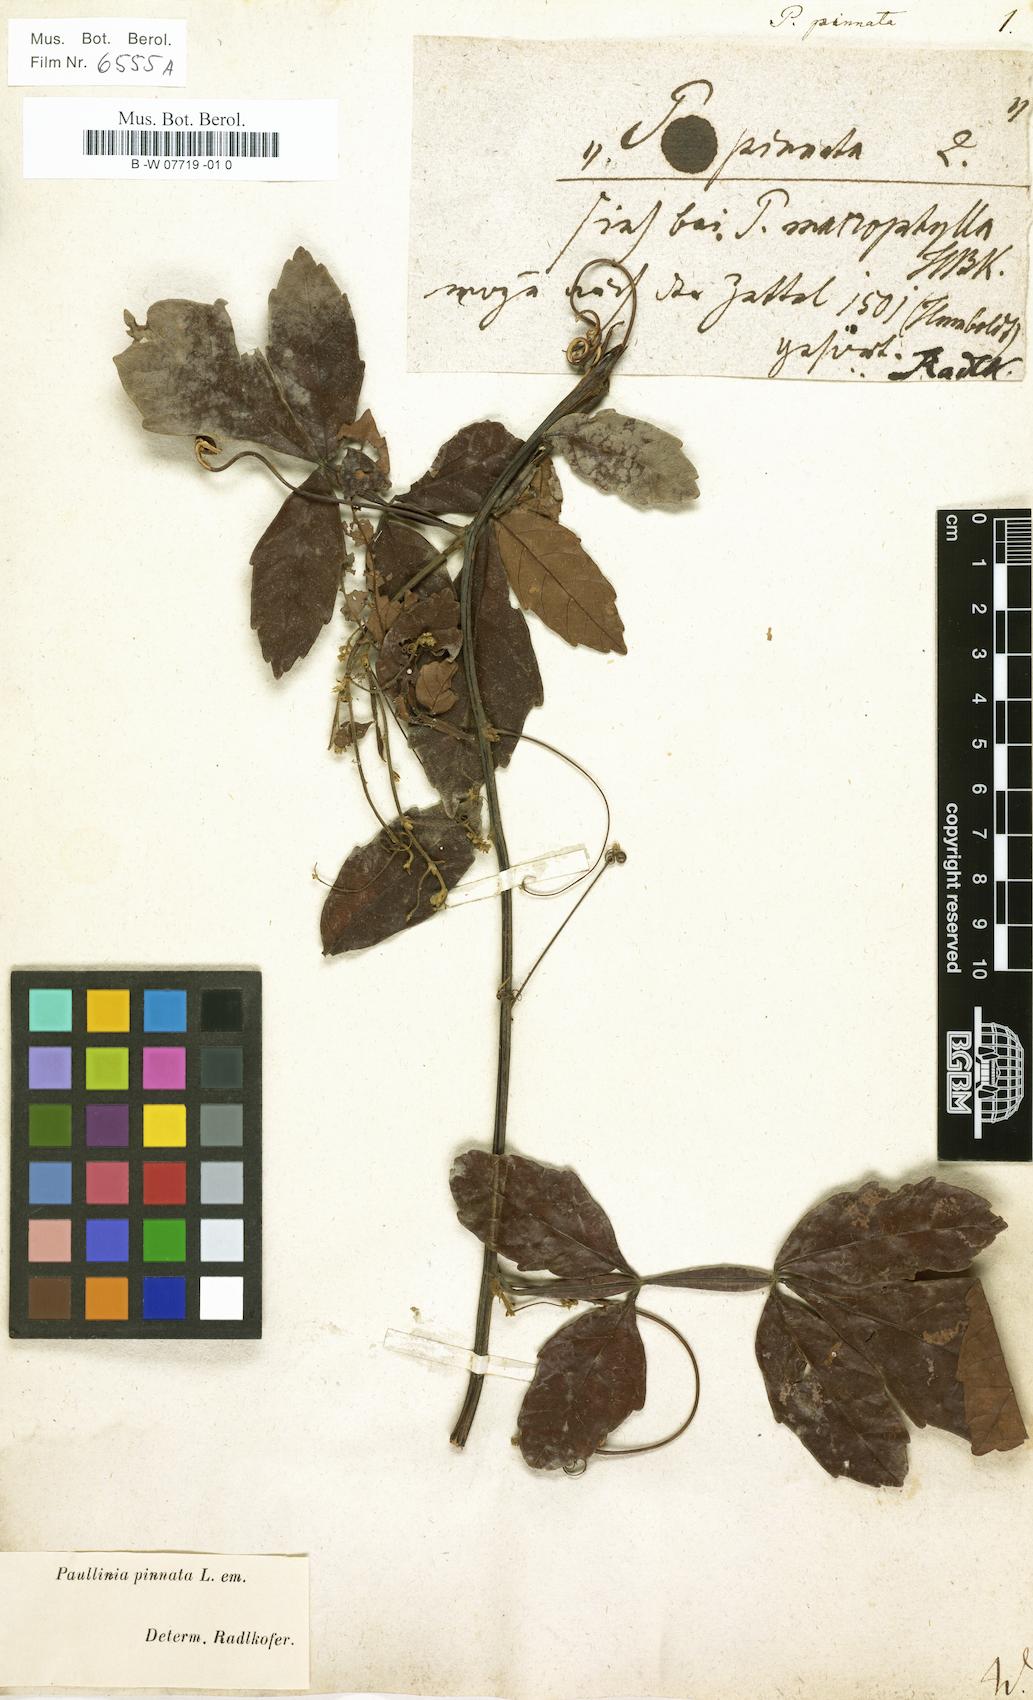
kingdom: Plantae
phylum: Tracheophyta
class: Magnoliopsida
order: Sapindales
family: Sapindaceae
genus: Paullinia
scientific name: Paullinia pinnata
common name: Barbasco
